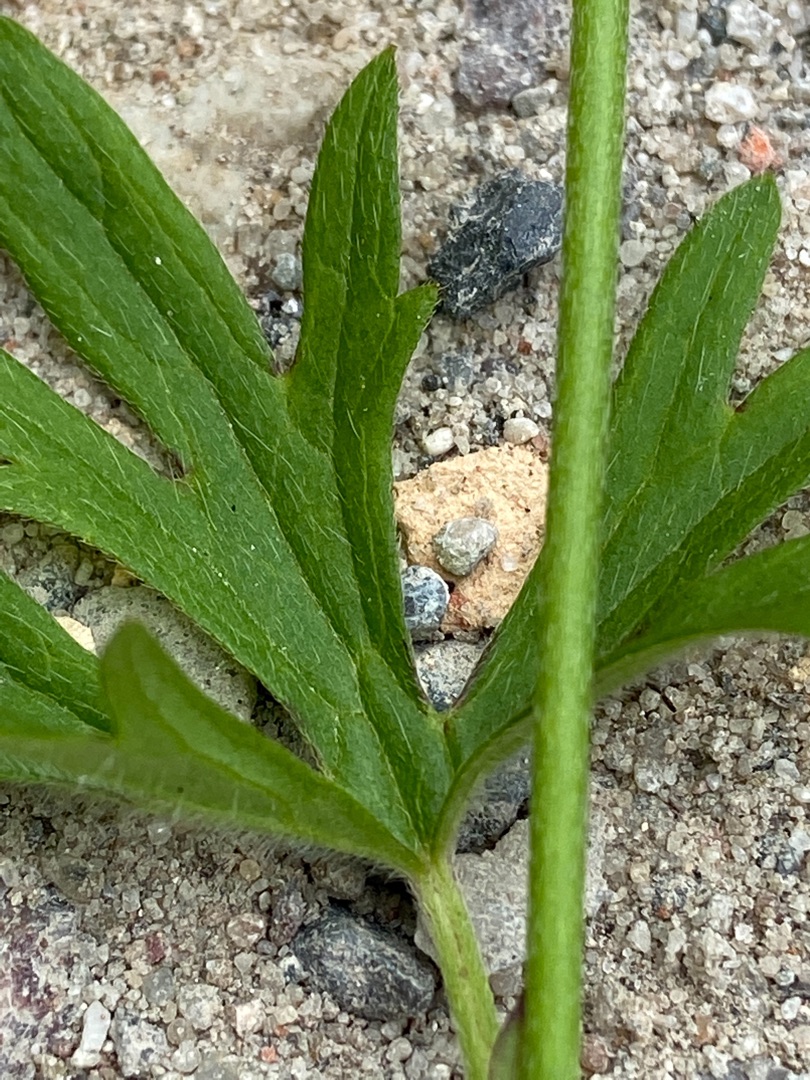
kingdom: Plantae
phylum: Tracheophyta
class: Magnoliopsida
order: Ranunculales
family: Ranunculaceae
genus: Ranunculus
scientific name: Ranunculus acris
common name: Bidende ranunkel
